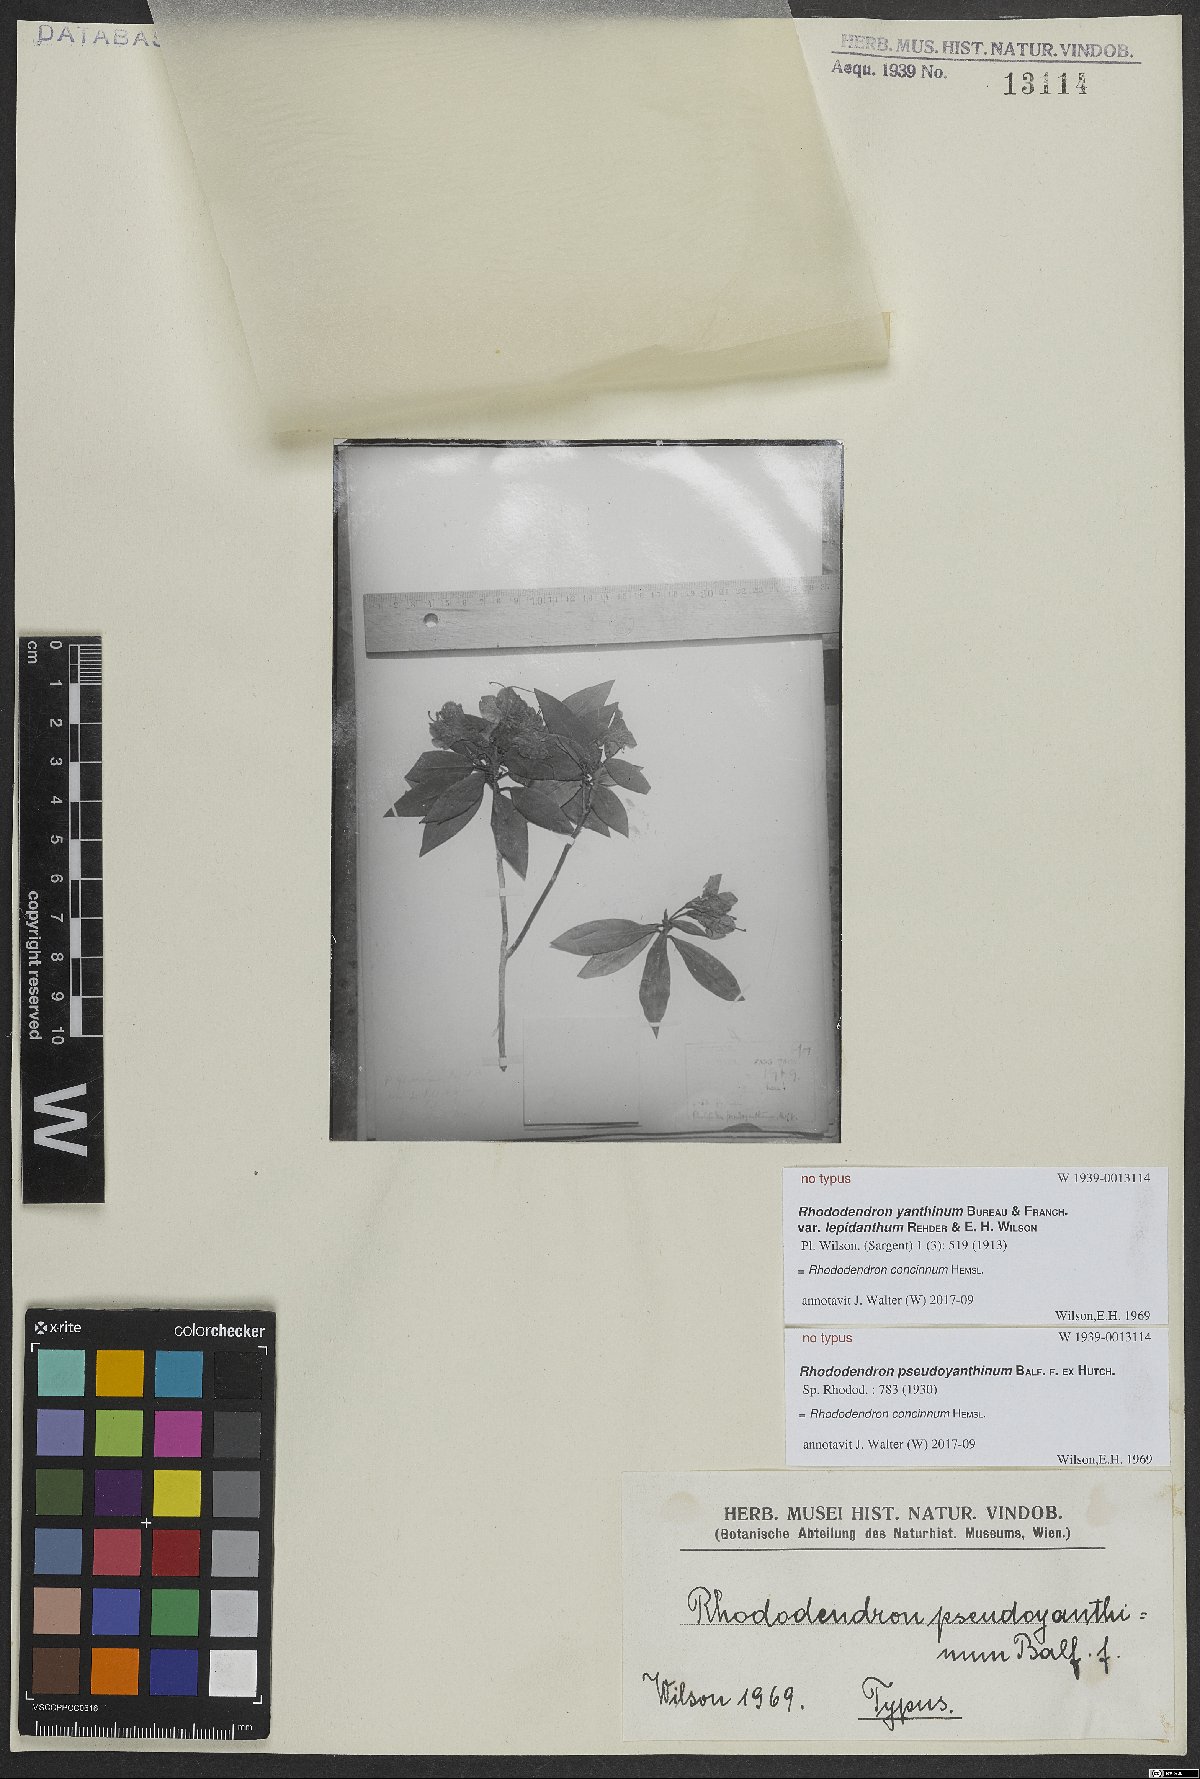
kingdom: Plantae
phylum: Tracheophyta
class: Magnoliopsida
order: Ericales
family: Ericaceae
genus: Rhododendron
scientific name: Rhododendron concinnum
